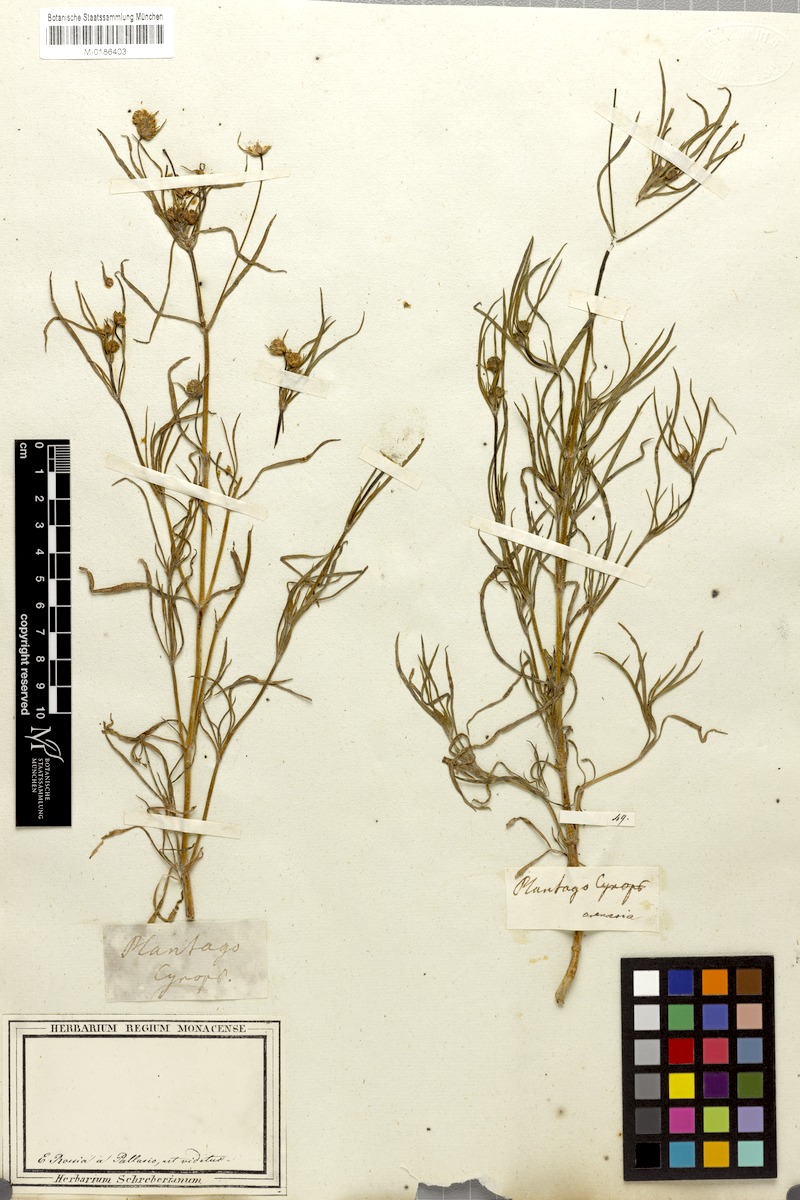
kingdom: Plantae
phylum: Tracheophyta
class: Magnoliopsida
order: Lamiales
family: Plantaginaceae
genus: Plantago
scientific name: Plantago arenaria
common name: Branched plantain
